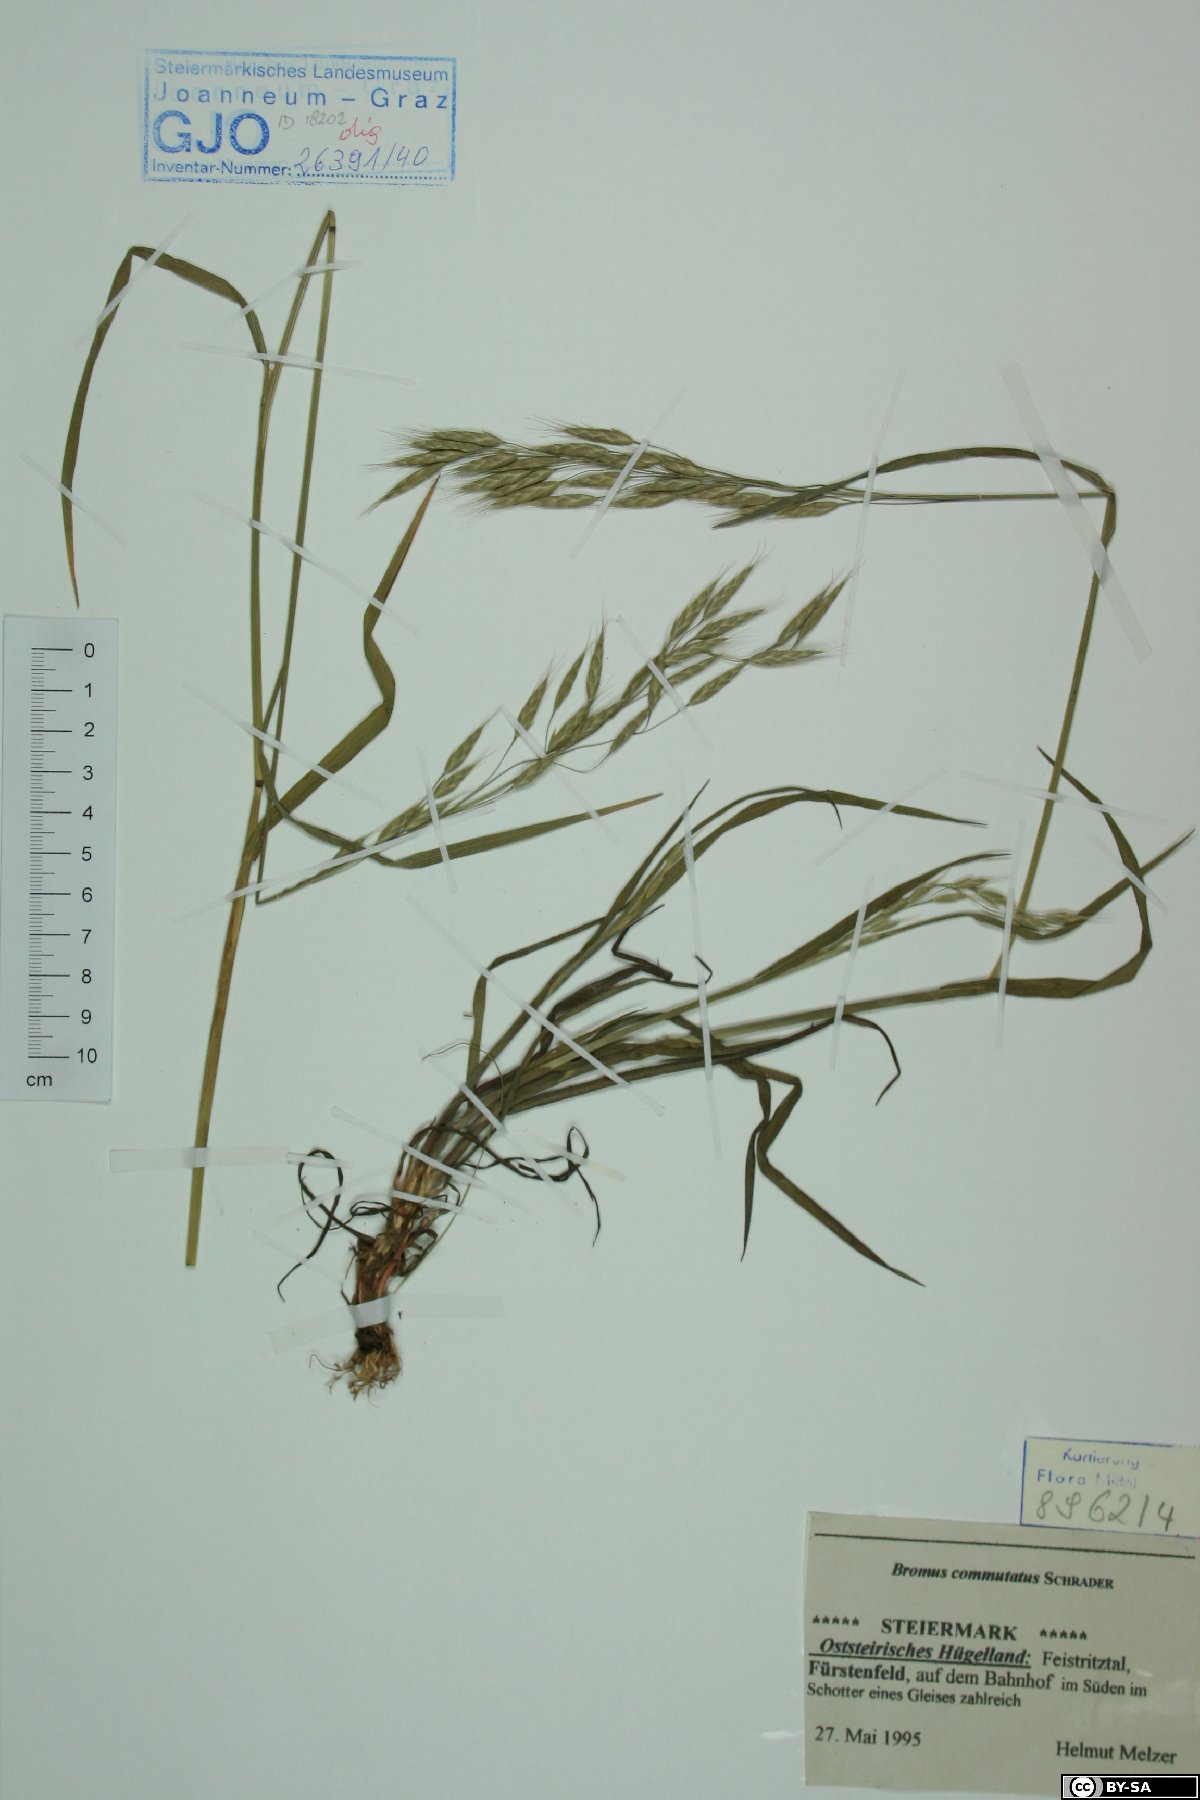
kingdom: Plantae
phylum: Tracheophyta
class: Liliopsida
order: Poales
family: Poaceae
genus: Bromus
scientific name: Bromus commutatus
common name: Meadow brome
